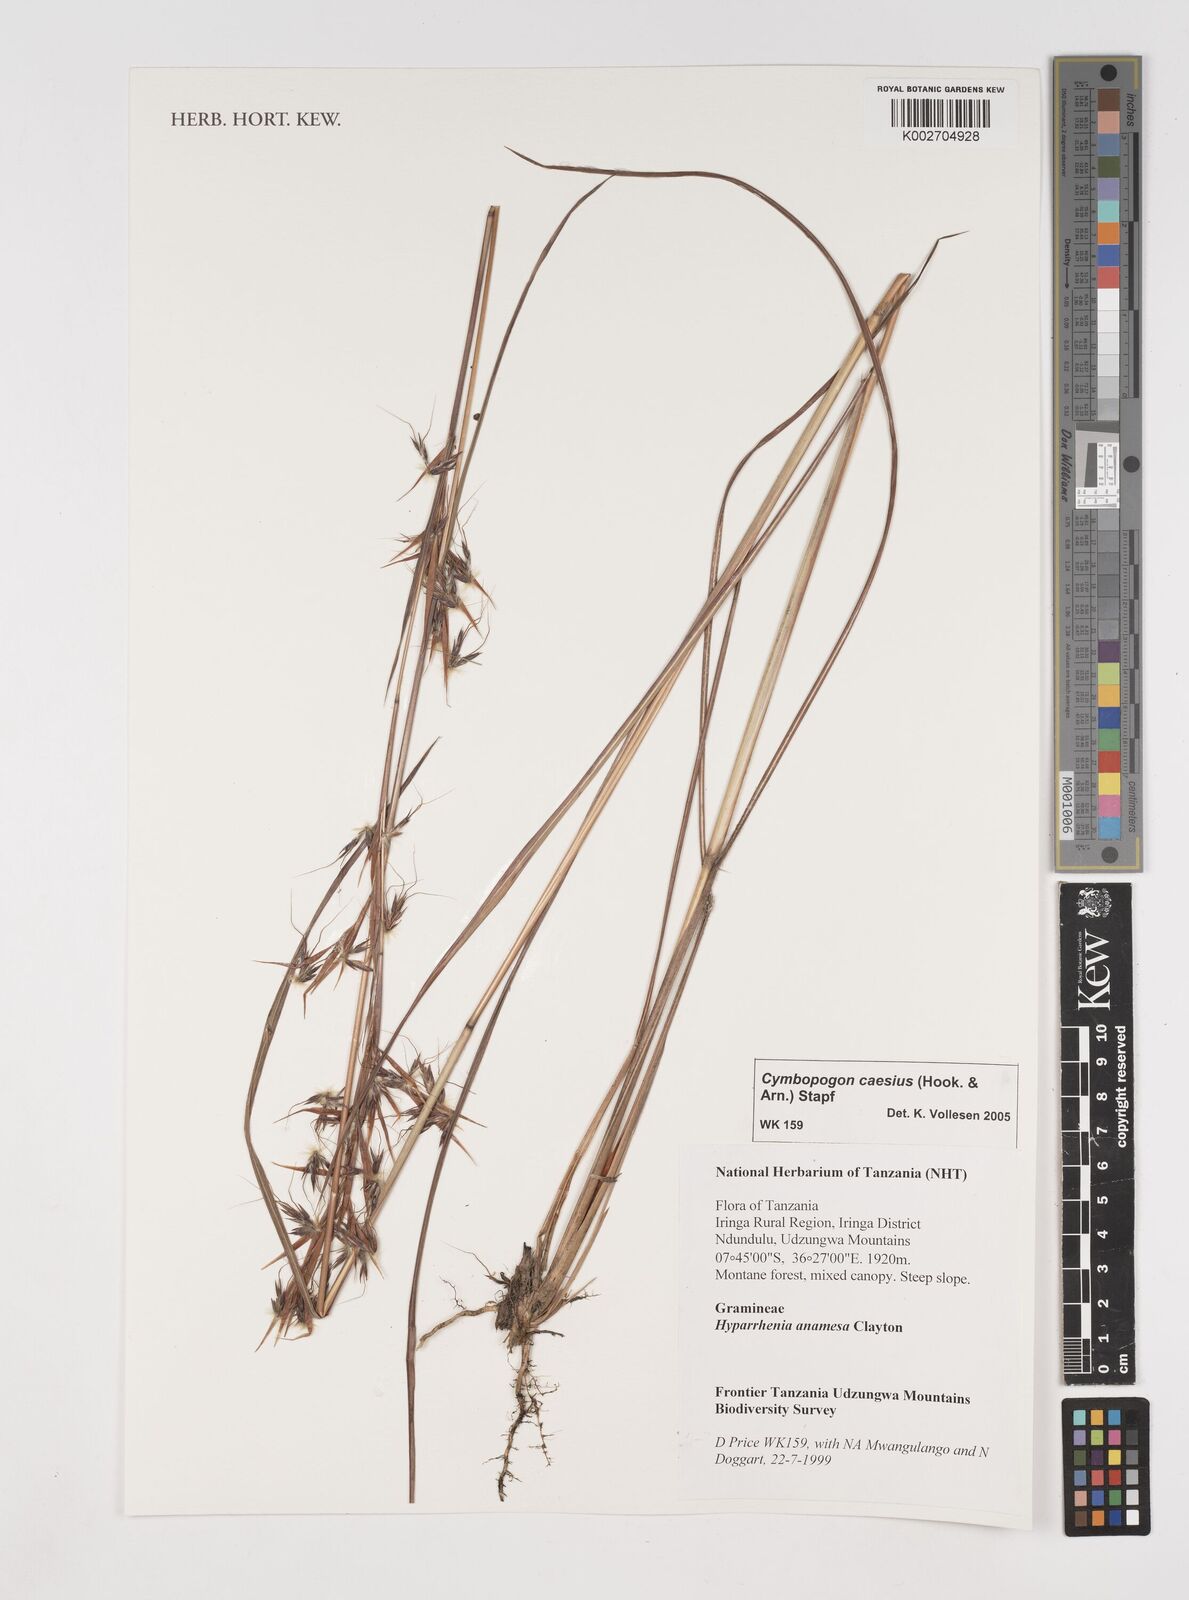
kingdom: Plantae
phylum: Tracheophyta
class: Liliopsida
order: Poales
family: Poaceae
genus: Cymbopogon
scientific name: Cymbopogon caesius
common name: Kachi grass
